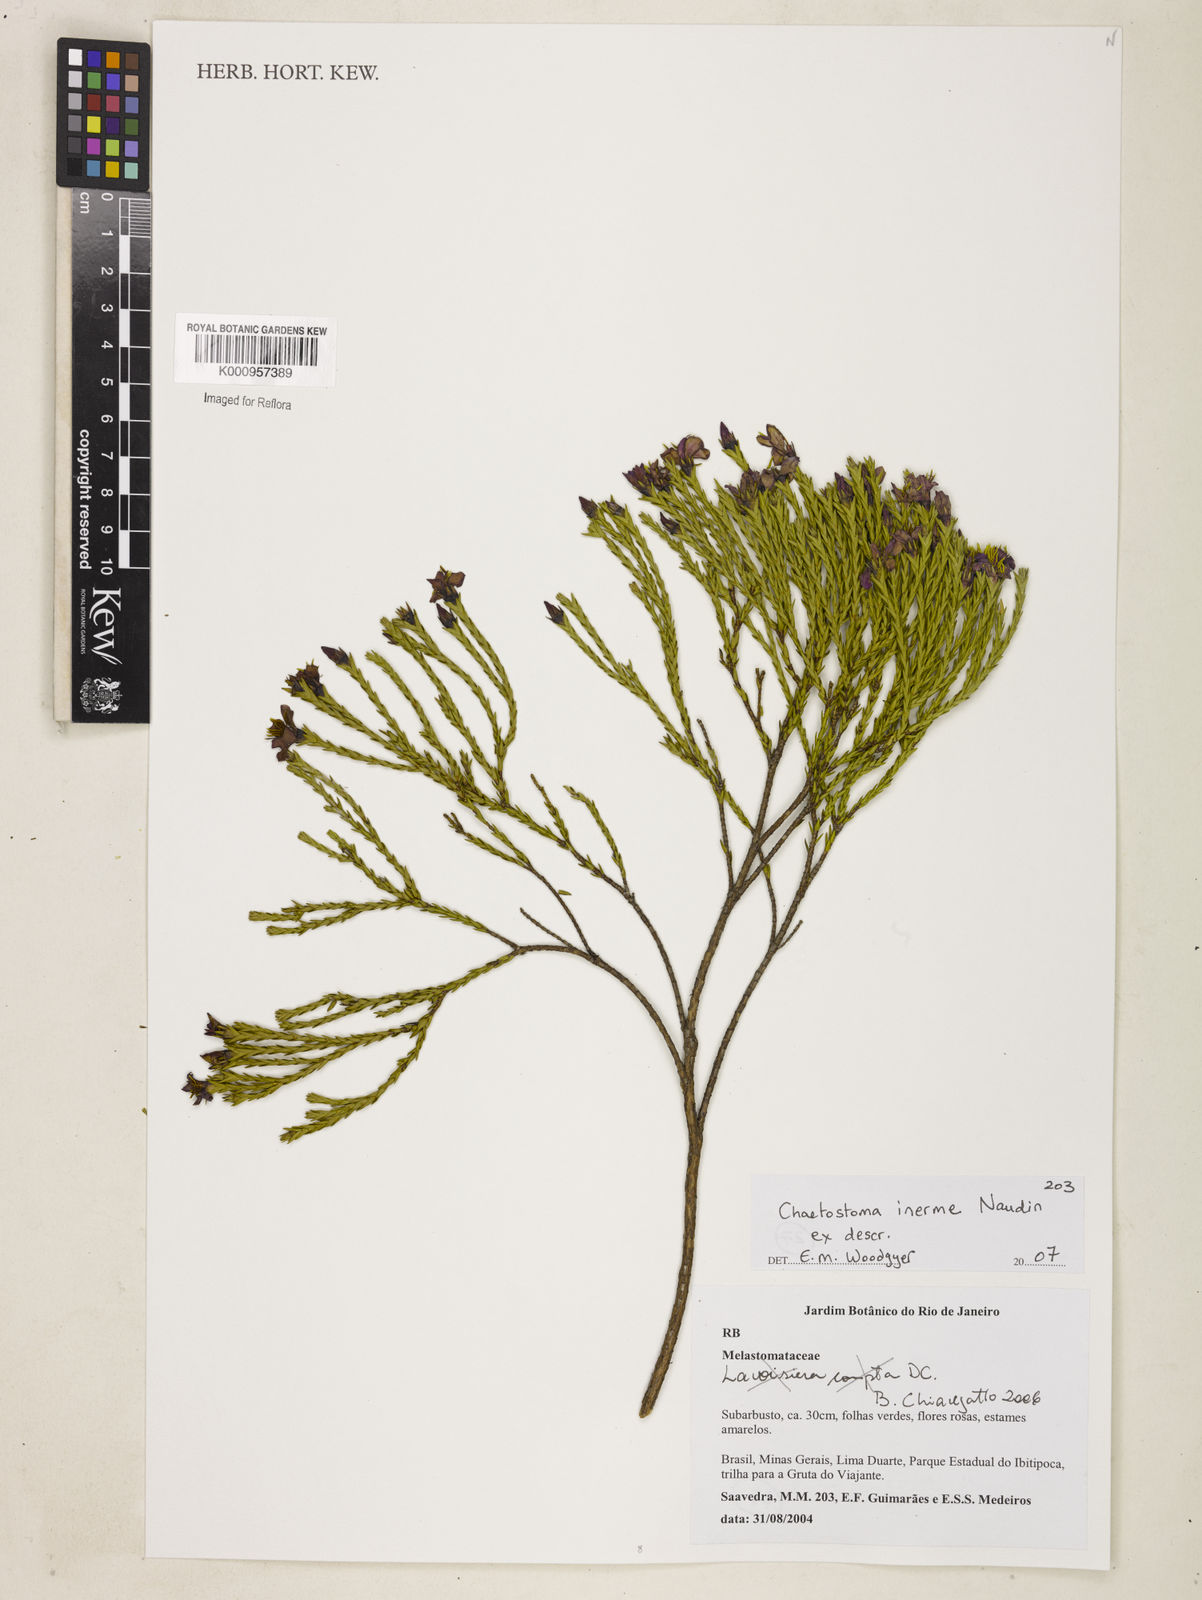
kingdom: Plantae
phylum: Tracheophyta
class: Magnoliopsida
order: Myrtales
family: Melastomataceae
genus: Microlicia
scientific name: Microlicia inermis
